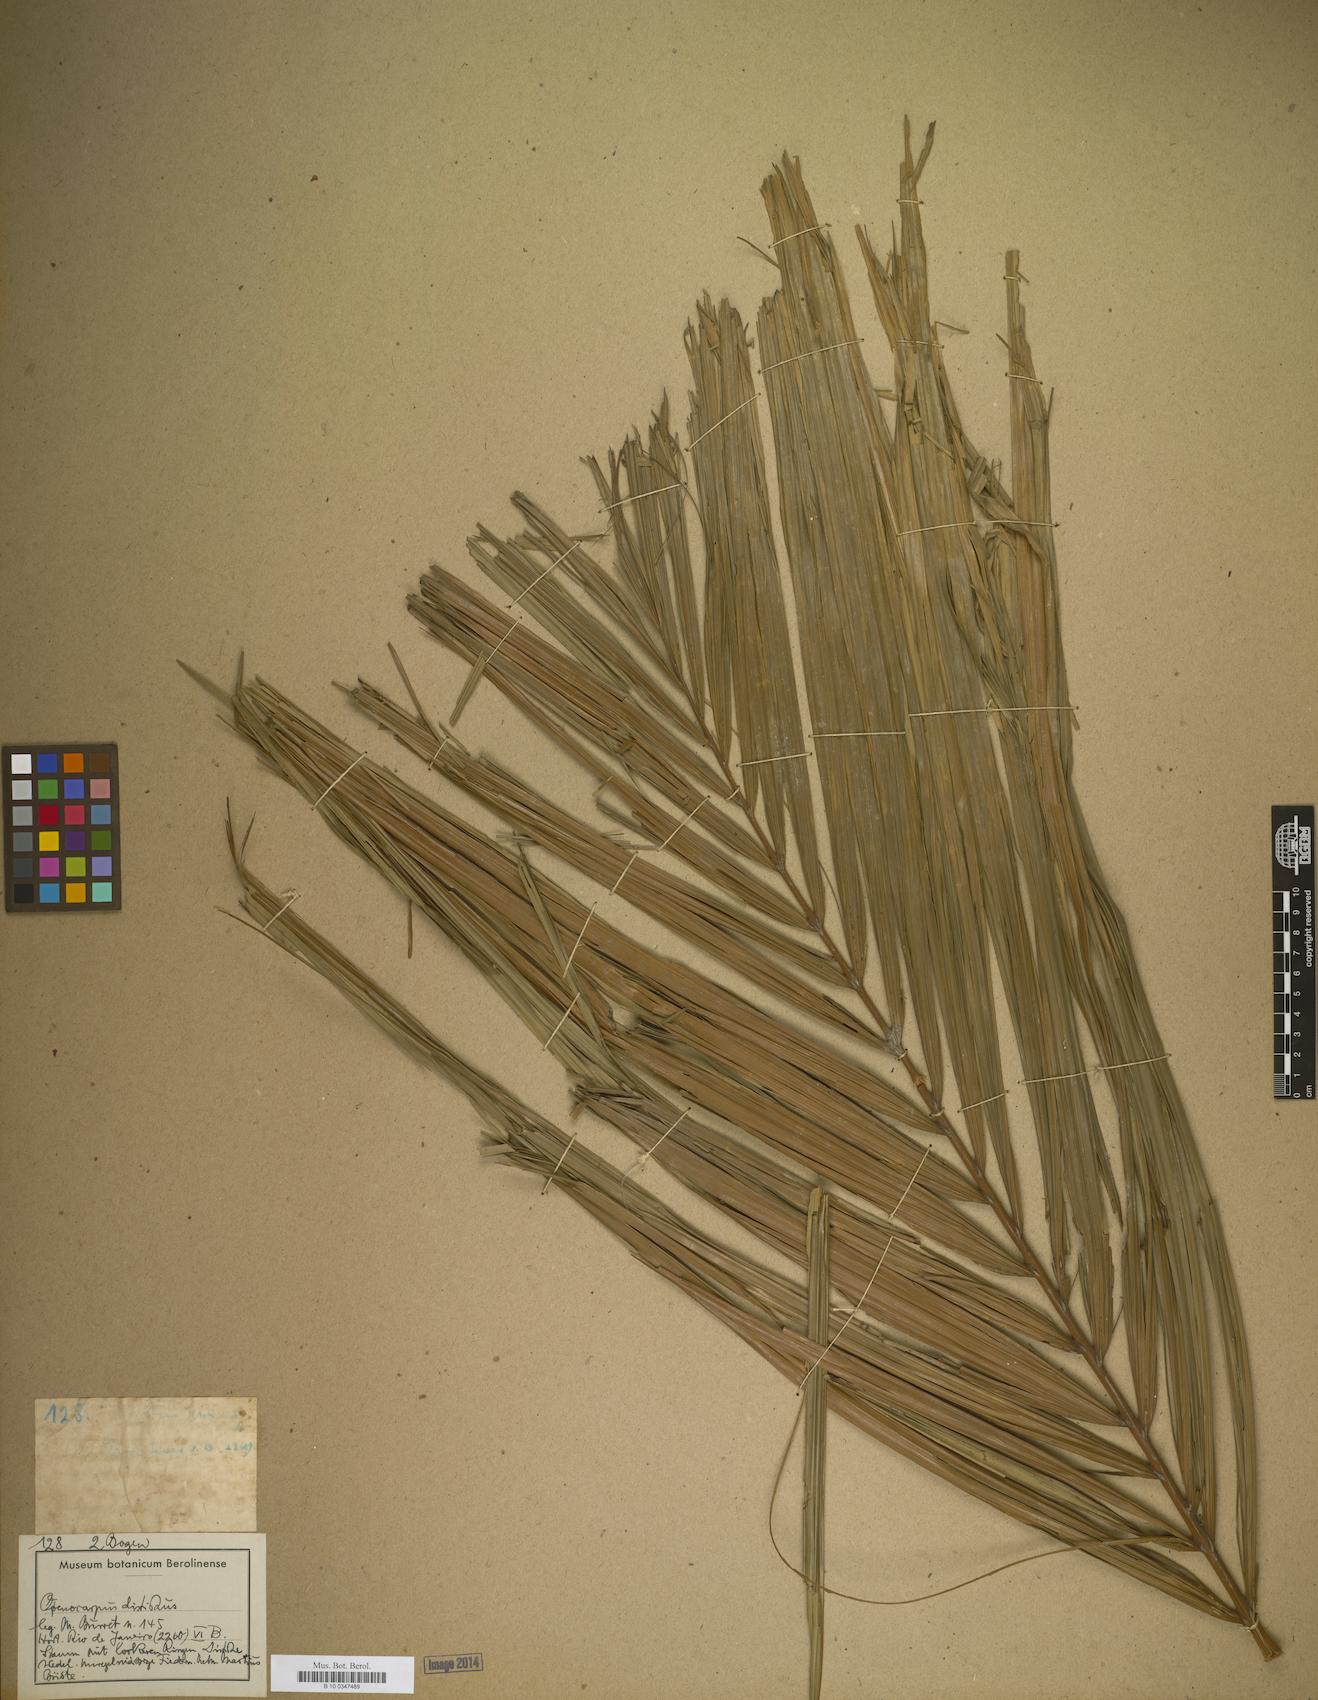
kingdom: Plantae
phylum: Tracheophyta
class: Liliopsida
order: Arecales
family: Arecaceae
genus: Oenocarpus
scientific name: Oenocarpus
